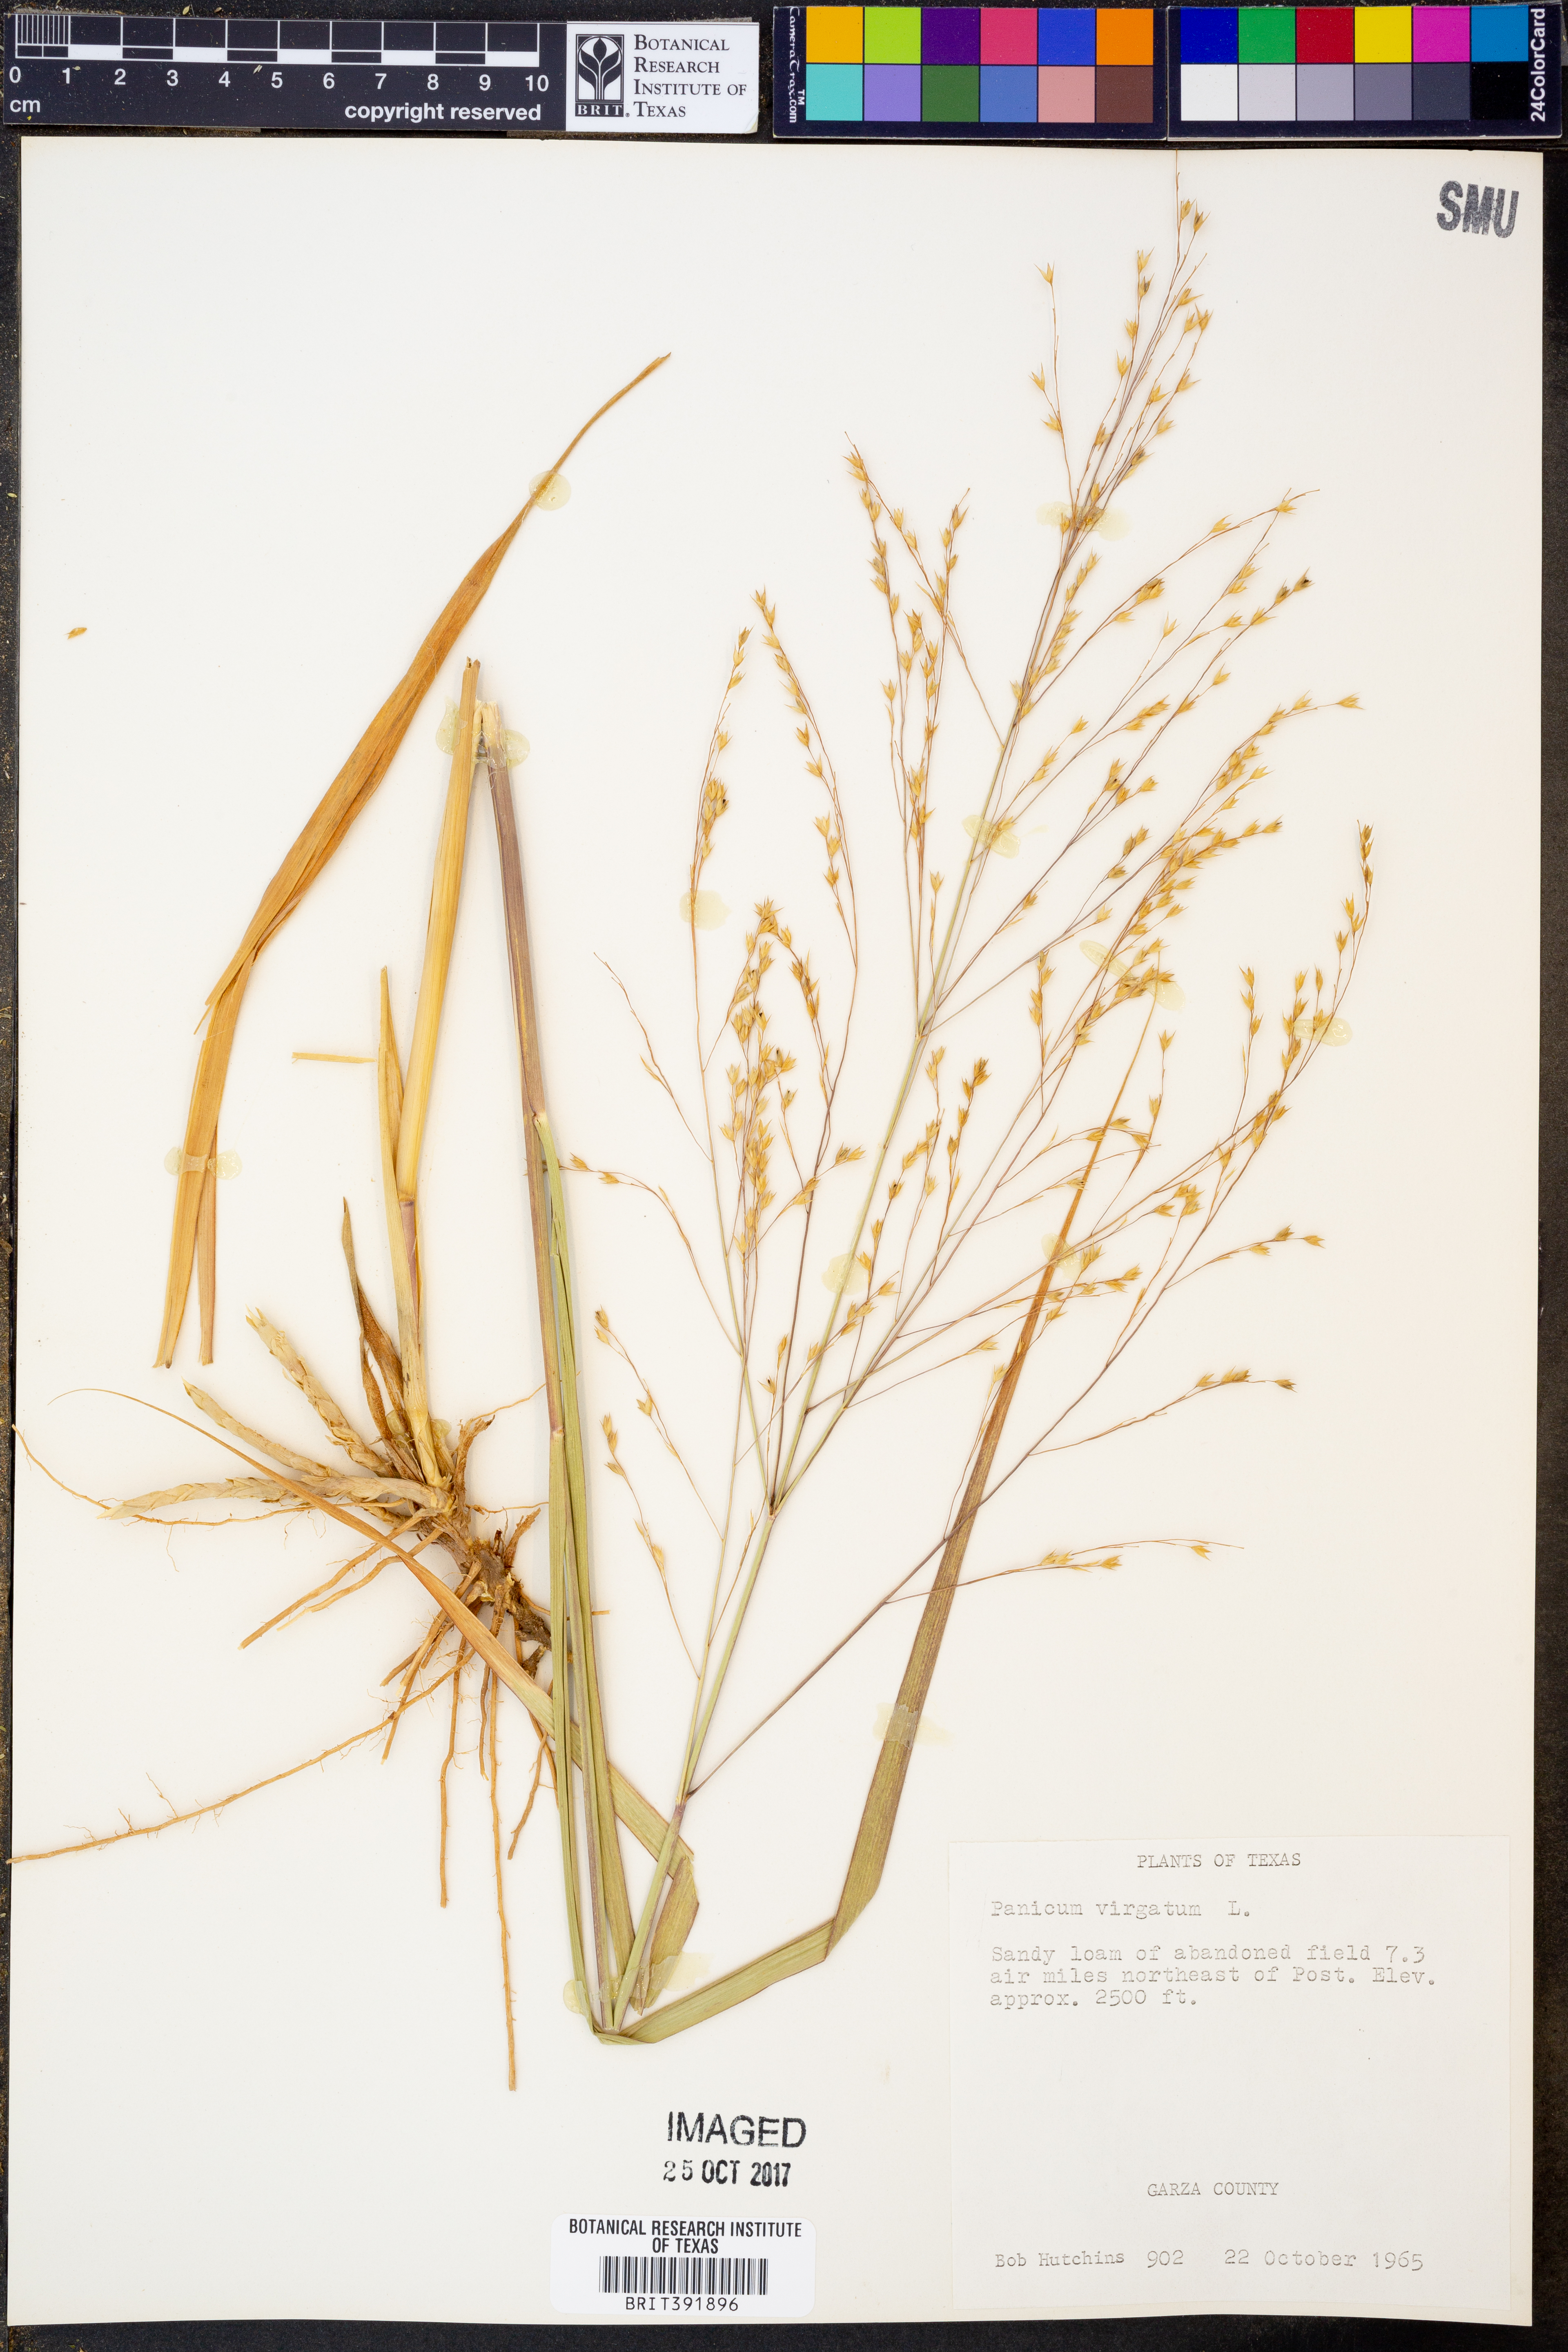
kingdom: Plantae
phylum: Tracheophyta
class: Liliopsida
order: Poales
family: Poaceae
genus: Panicum
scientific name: Panicum virgatum
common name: Switchgrass
